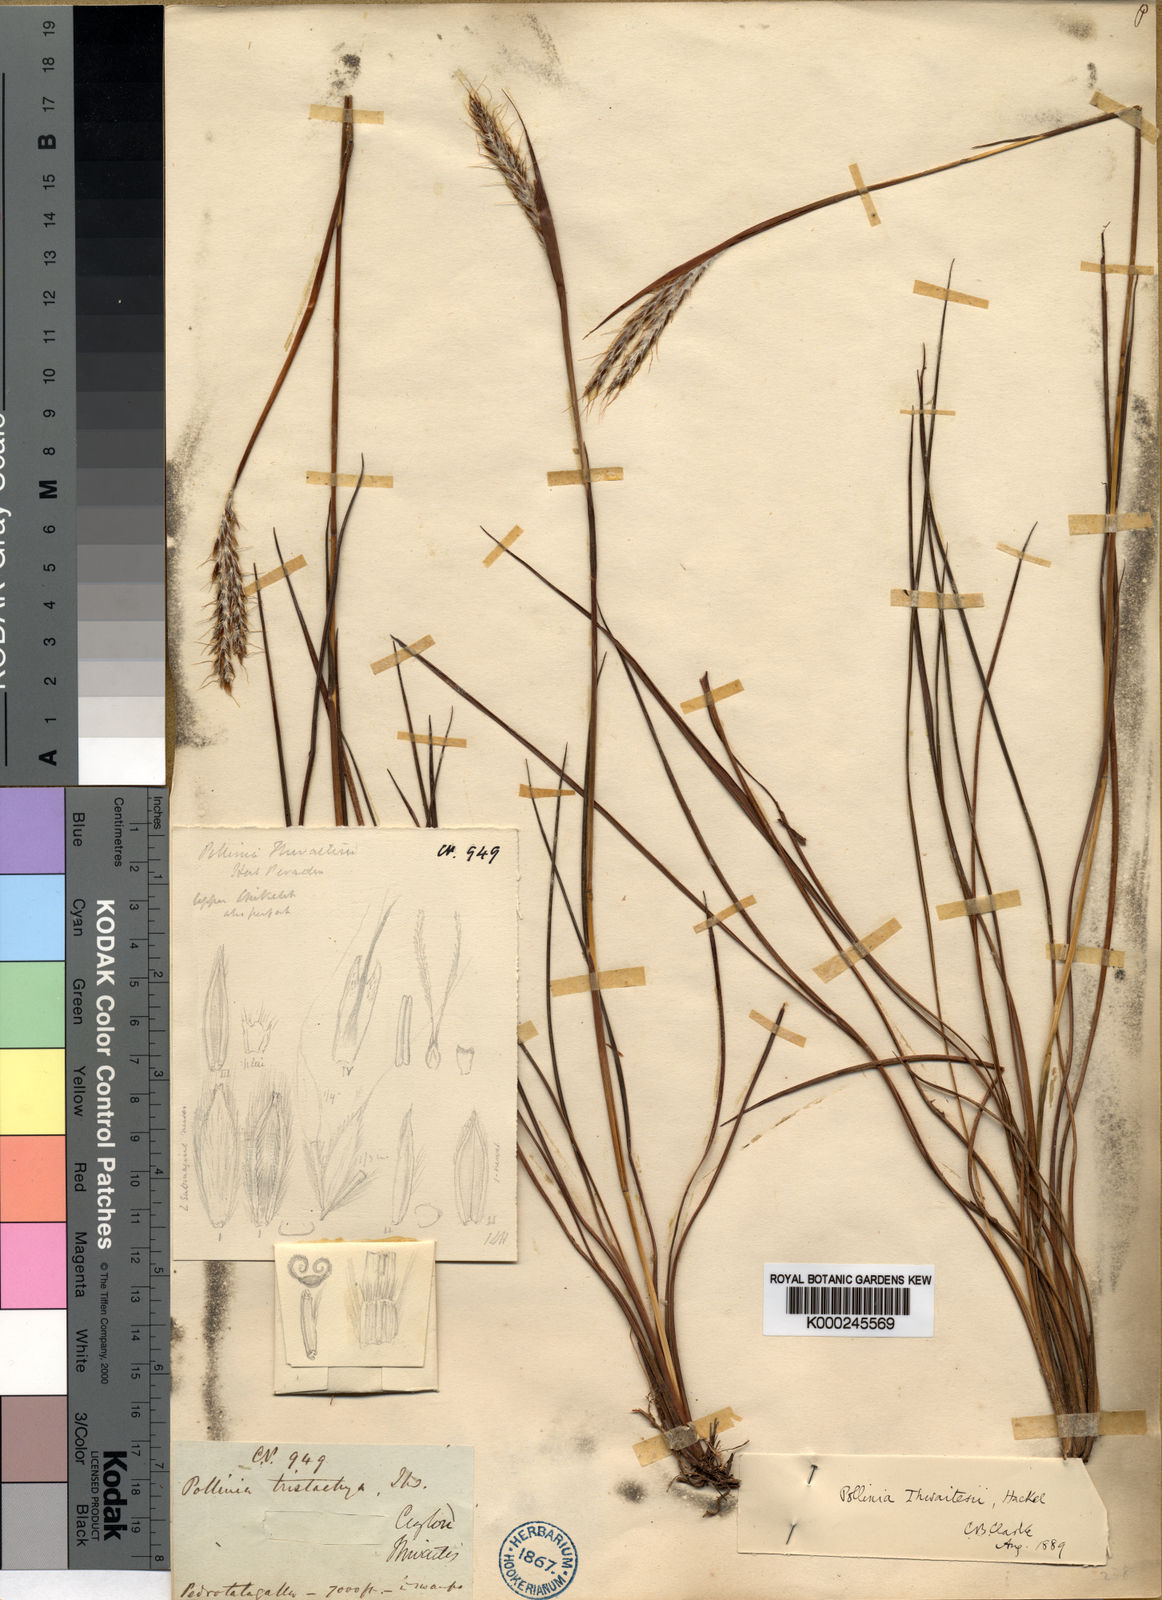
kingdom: Plantae
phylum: Tracheophyta
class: Liliopsida
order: Poales
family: Poaceae
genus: Eulalia
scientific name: Eulalia thwaitesii
